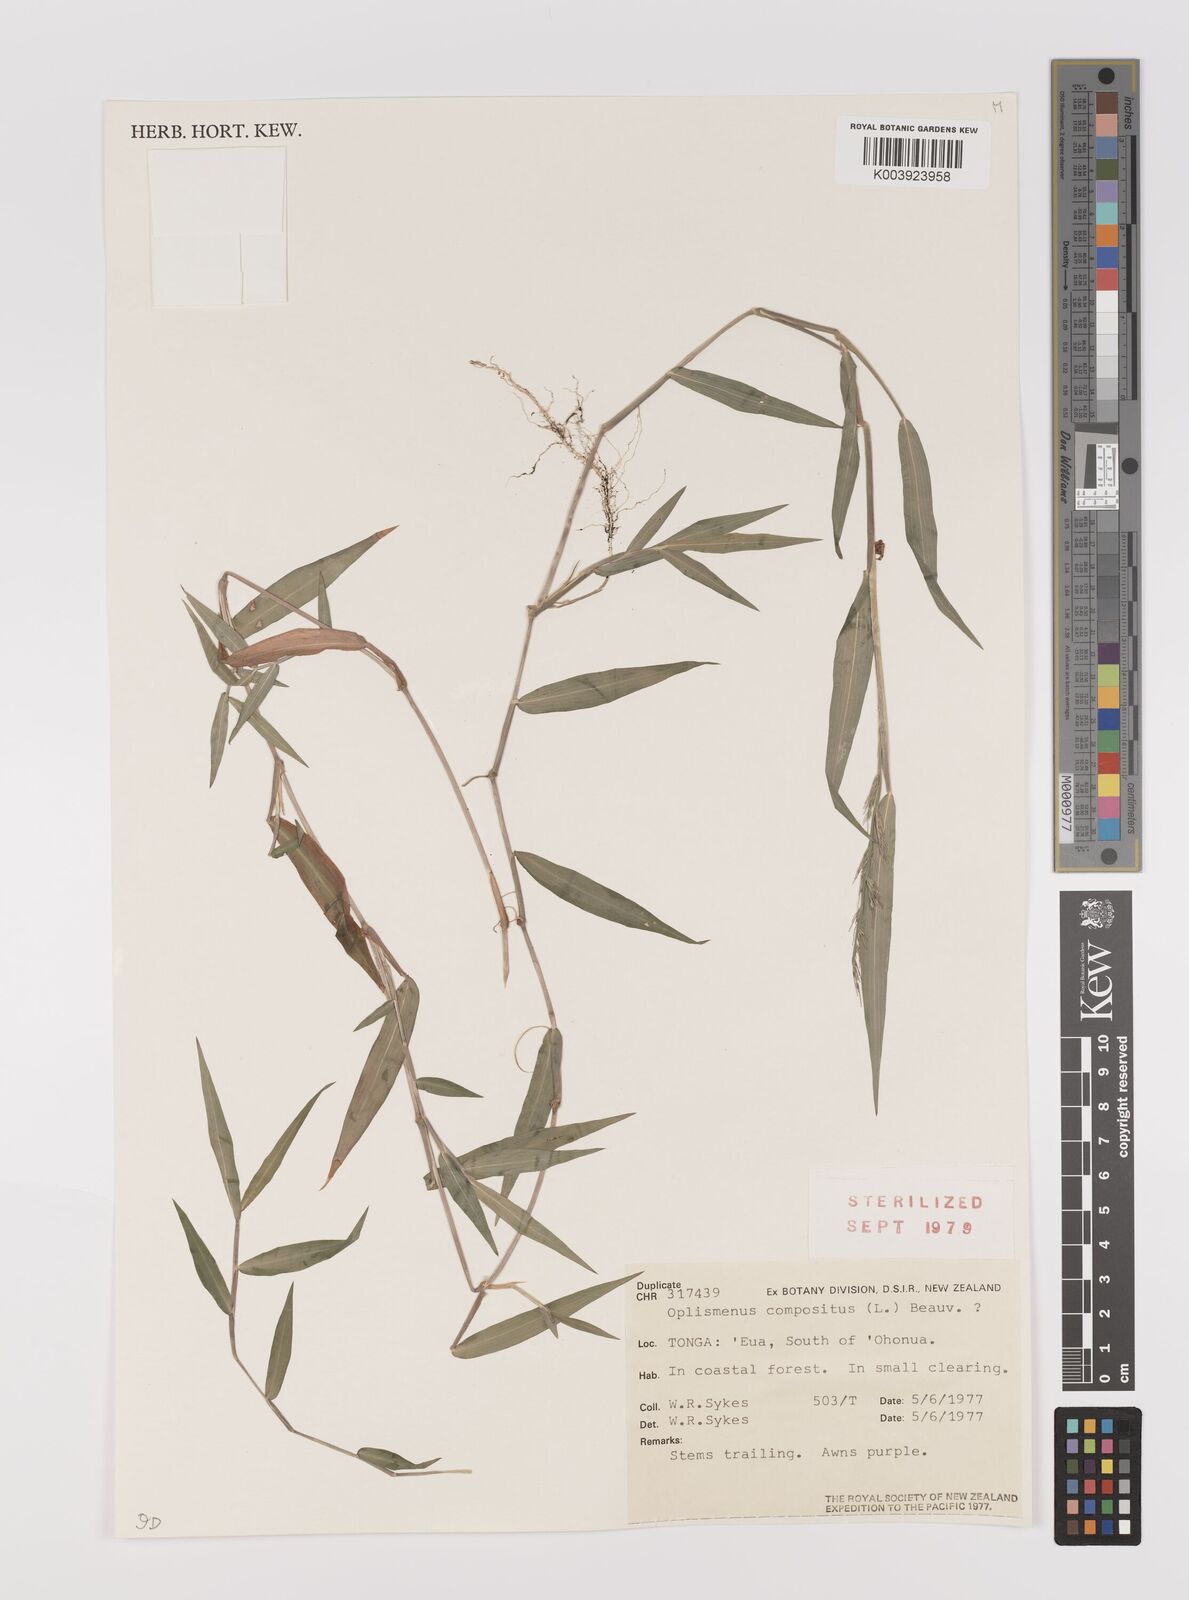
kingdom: Plantae
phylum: Tracheophyta
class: Liliopsida
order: Poales
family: Poaceae
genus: Oplismenus
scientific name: Oplismenus compositus
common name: Running mountain grass
